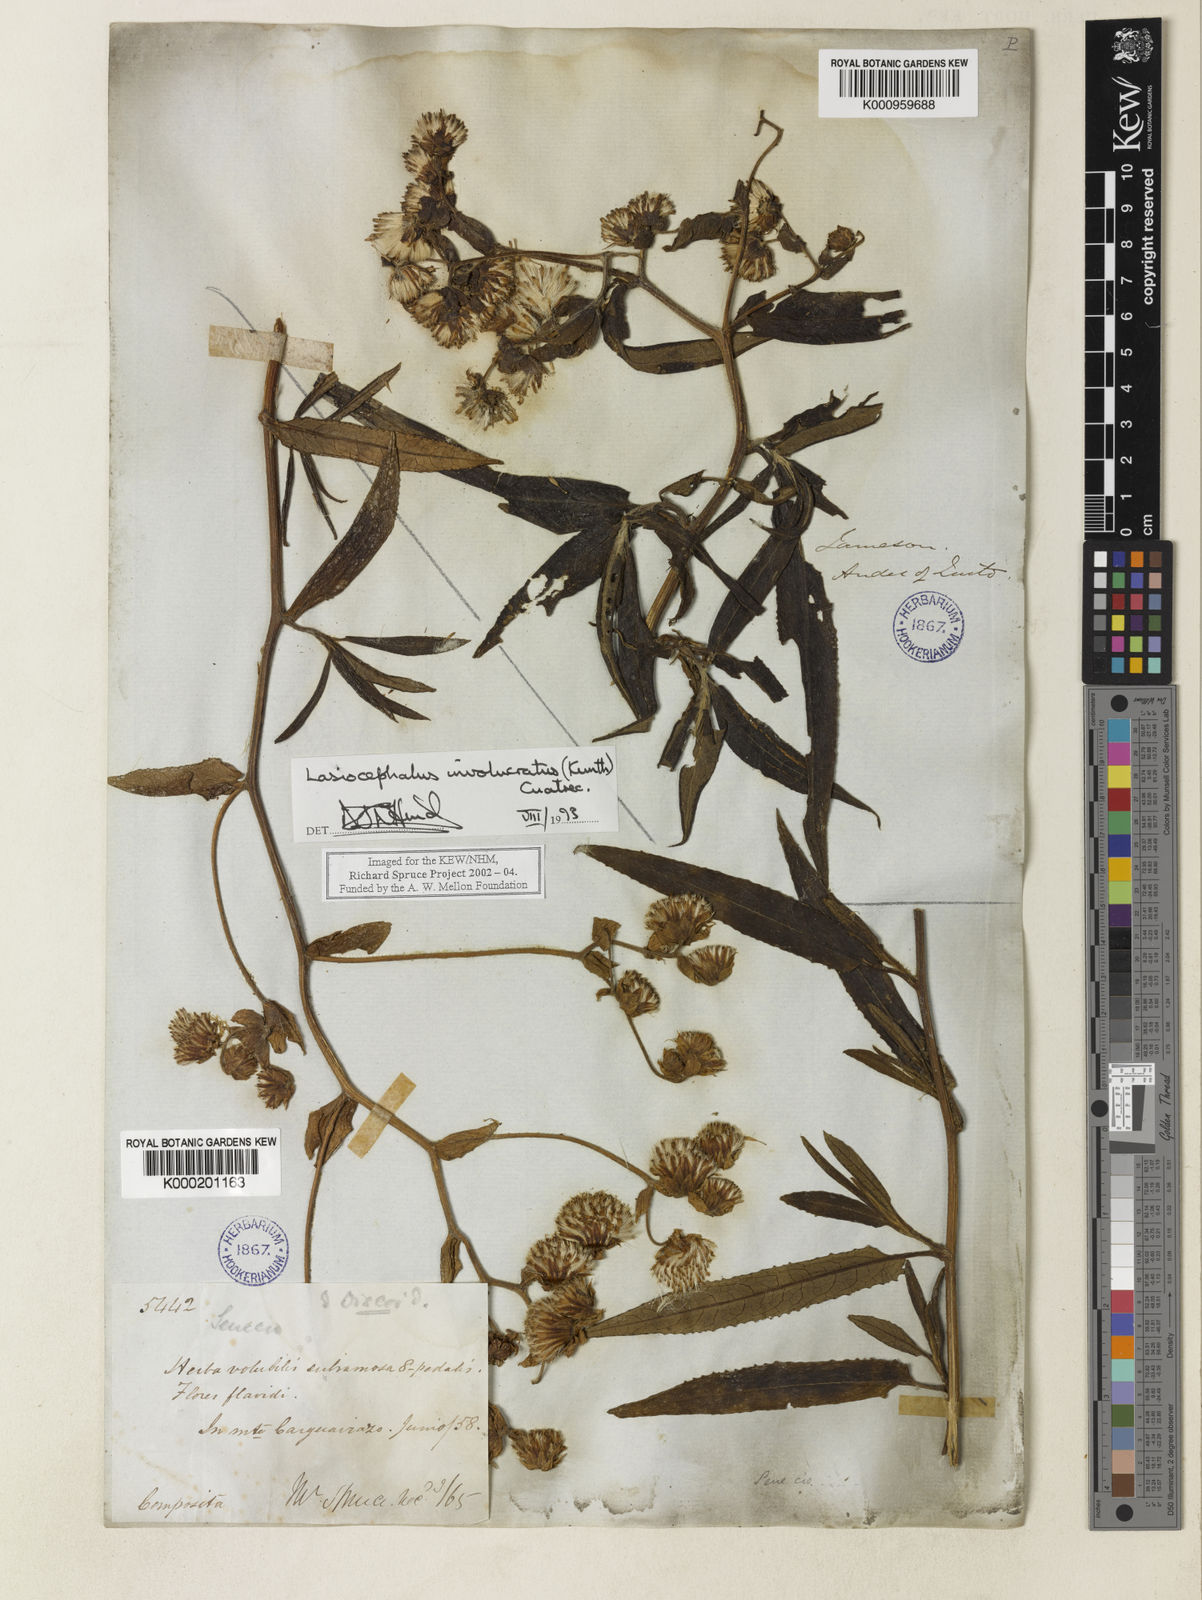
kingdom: Plantae
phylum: Tracheophyta
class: Magnoliopsida
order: Asterales
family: Asteraceae
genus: Aetheolaena
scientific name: Aetheolaena involucrata
